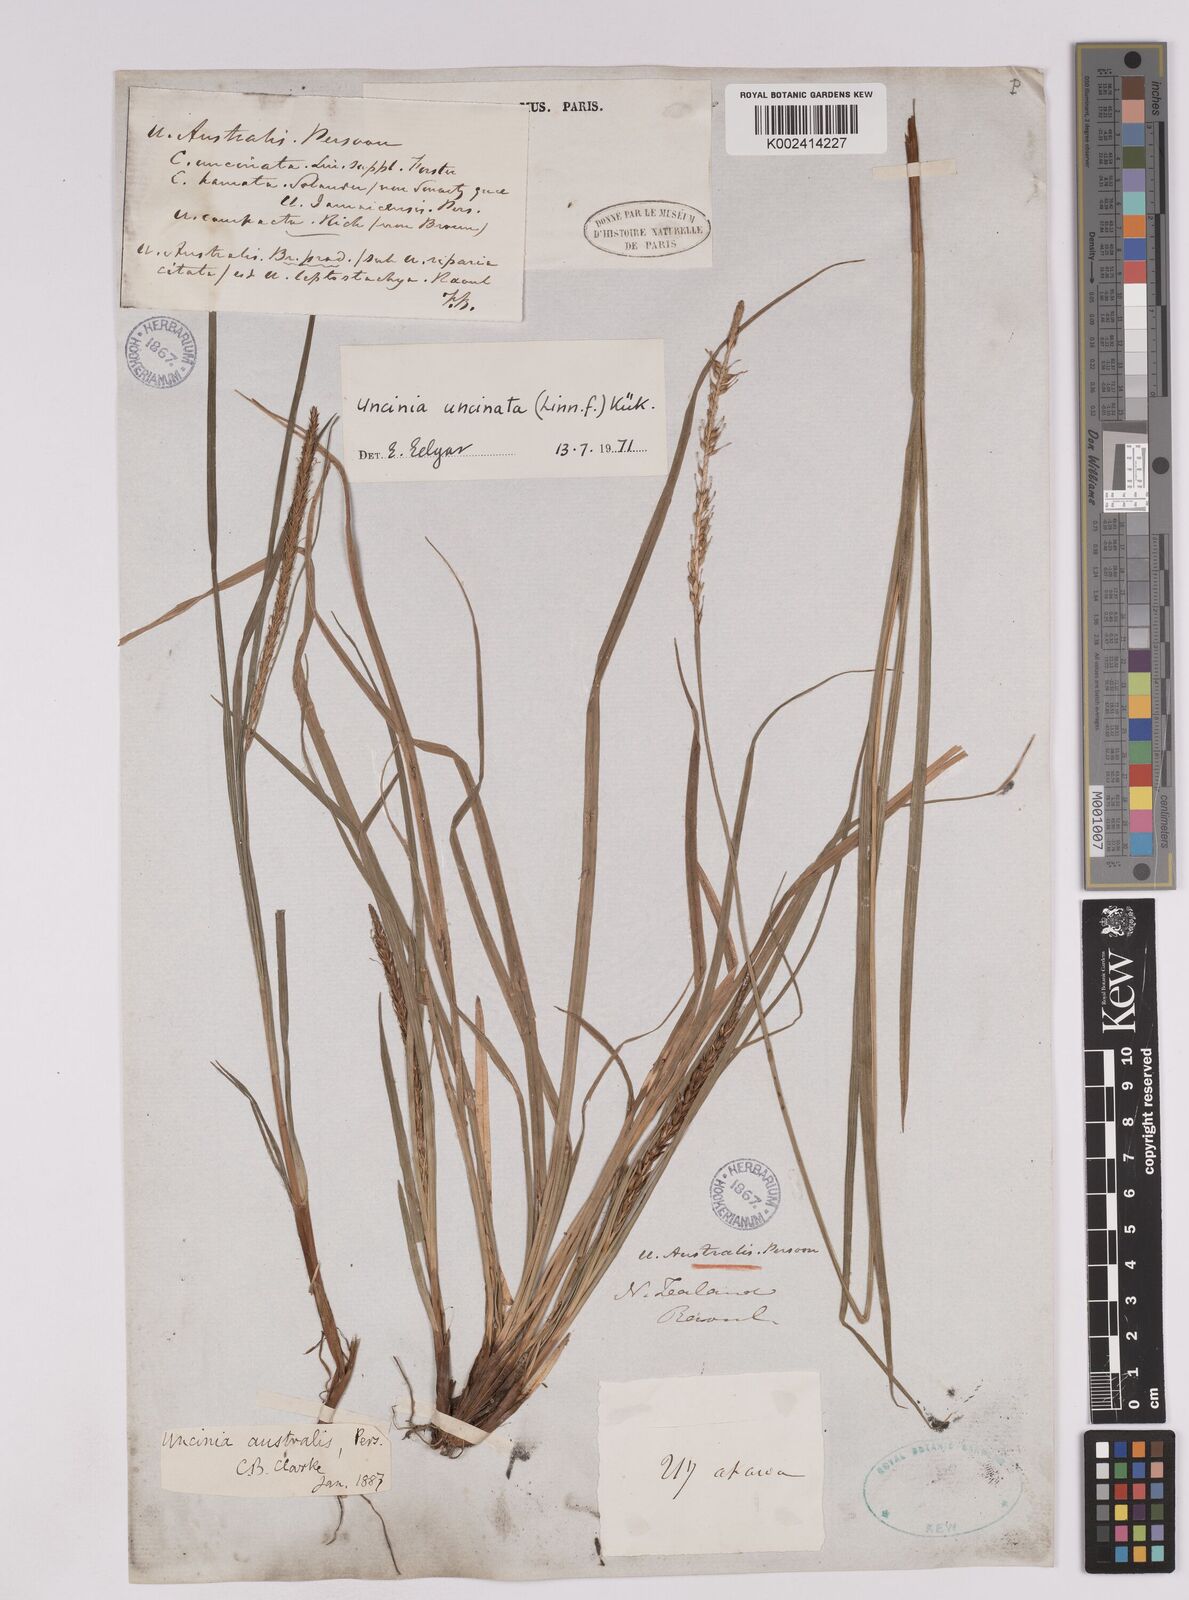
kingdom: Plantae
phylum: Tracheophyta
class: Liliopsida
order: Poales
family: Cyperaceae
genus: Carex
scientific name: Carex uncinata
